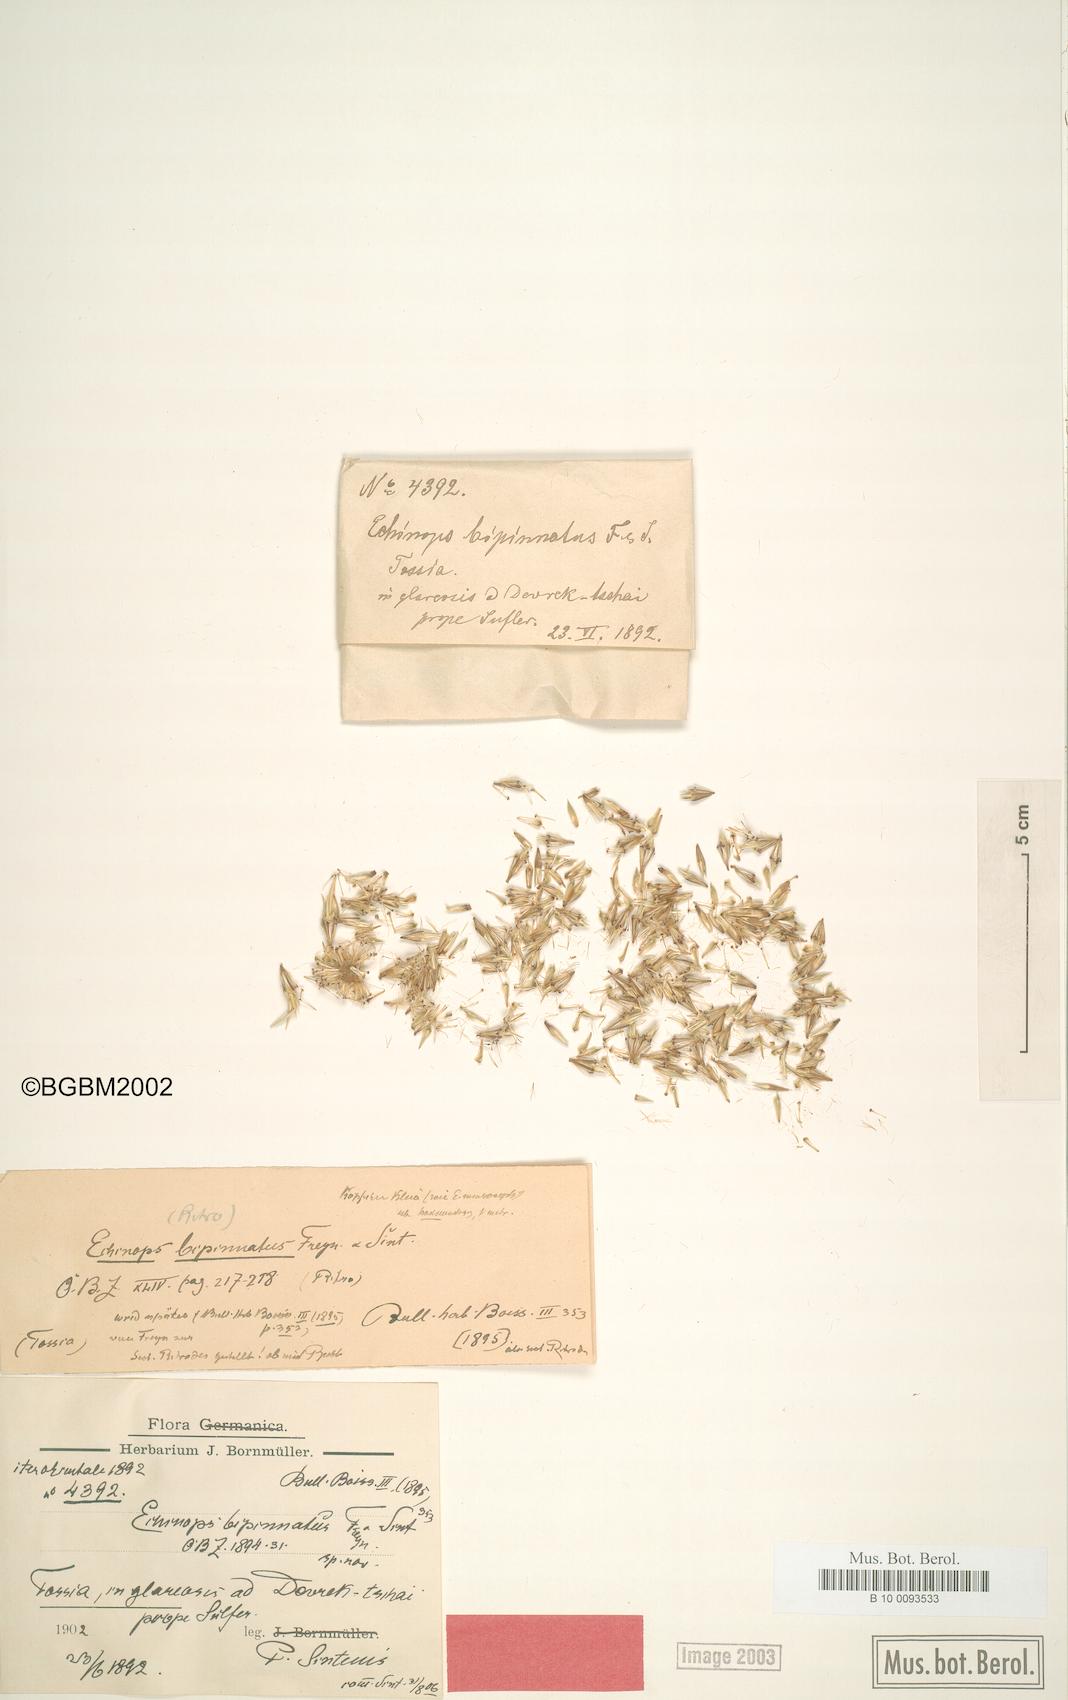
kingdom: Plantae
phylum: Tracheophyta
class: Magnoliopsida
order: Asterales
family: Asteraceae
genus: Echinops
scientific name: Echinops bipinnatus
